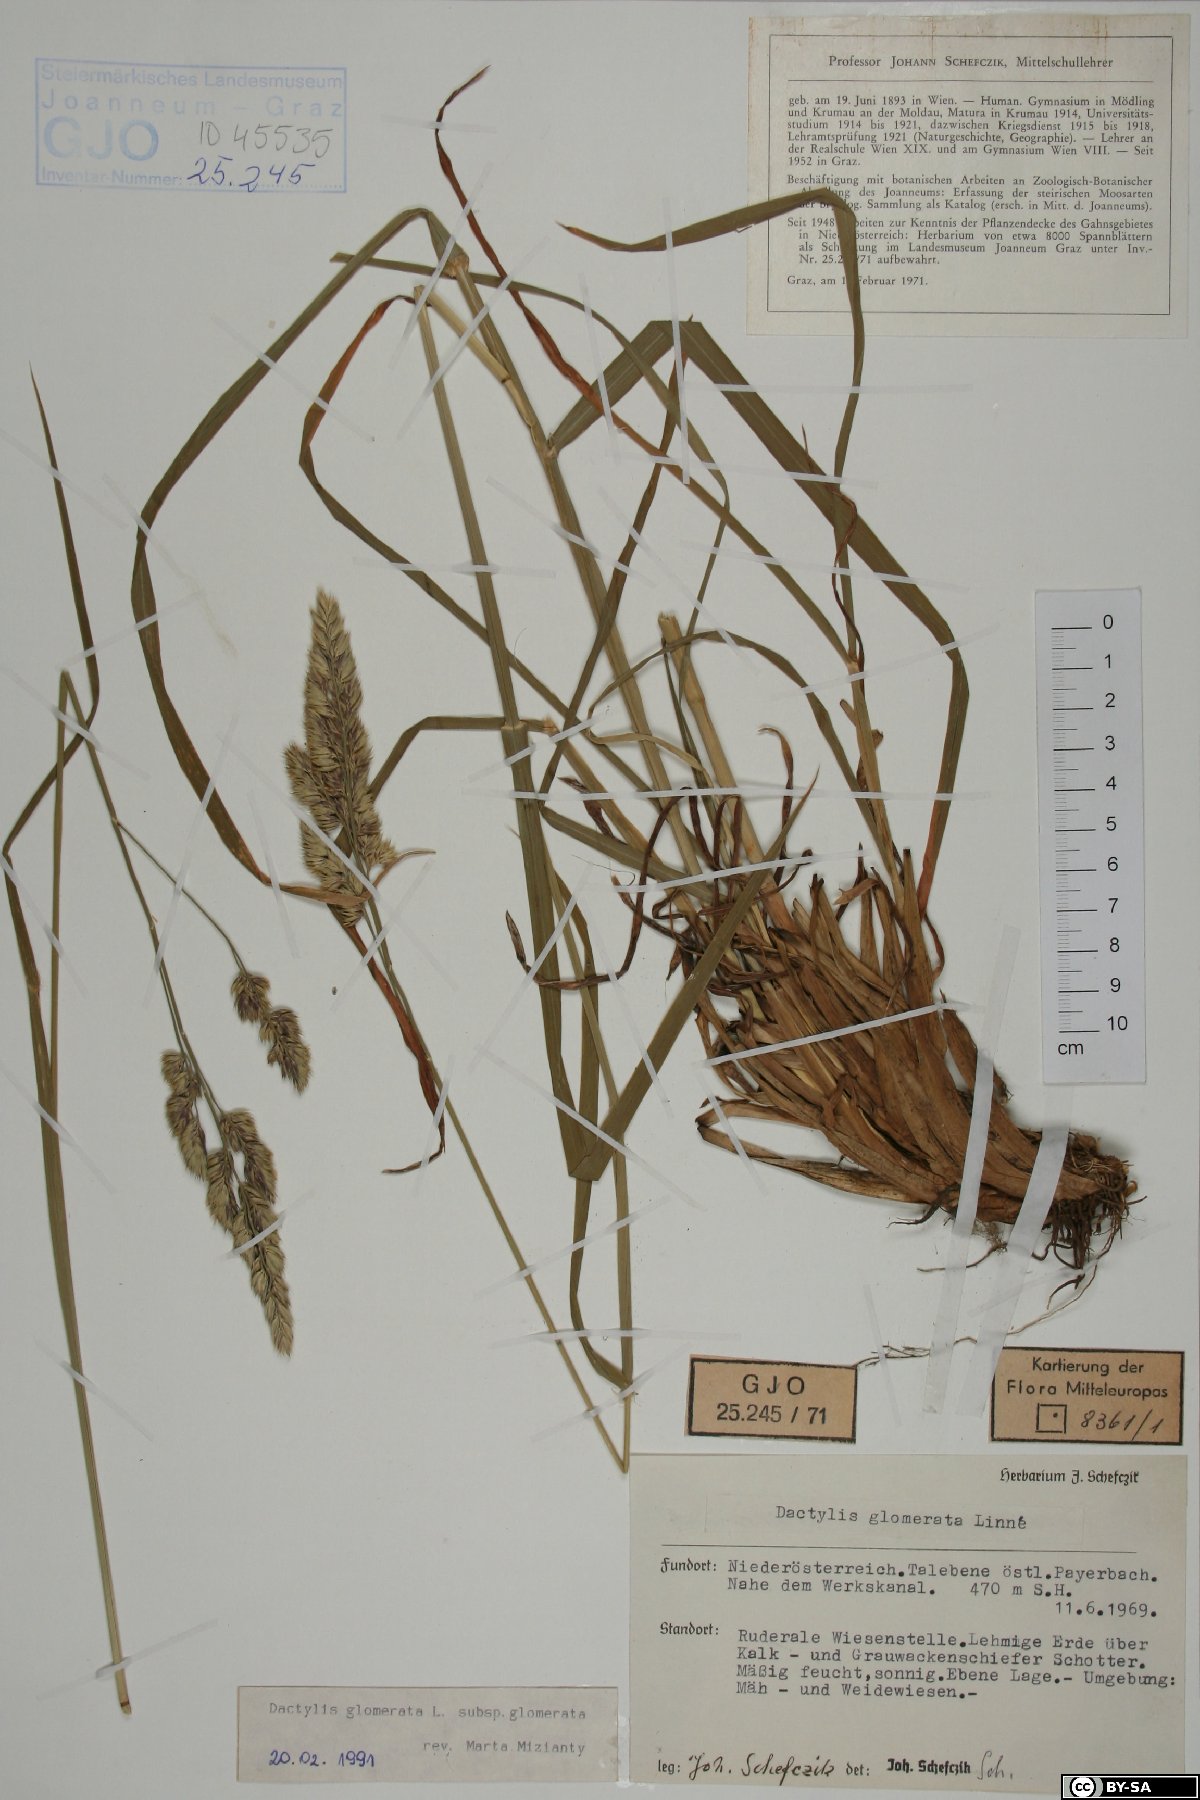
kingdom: Plantae
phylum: Tracheophyta
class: Liliopsida
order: Poales
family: Poaceae
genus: Dactylis
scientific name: Dactylis glomerata
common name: Orchardgrass
